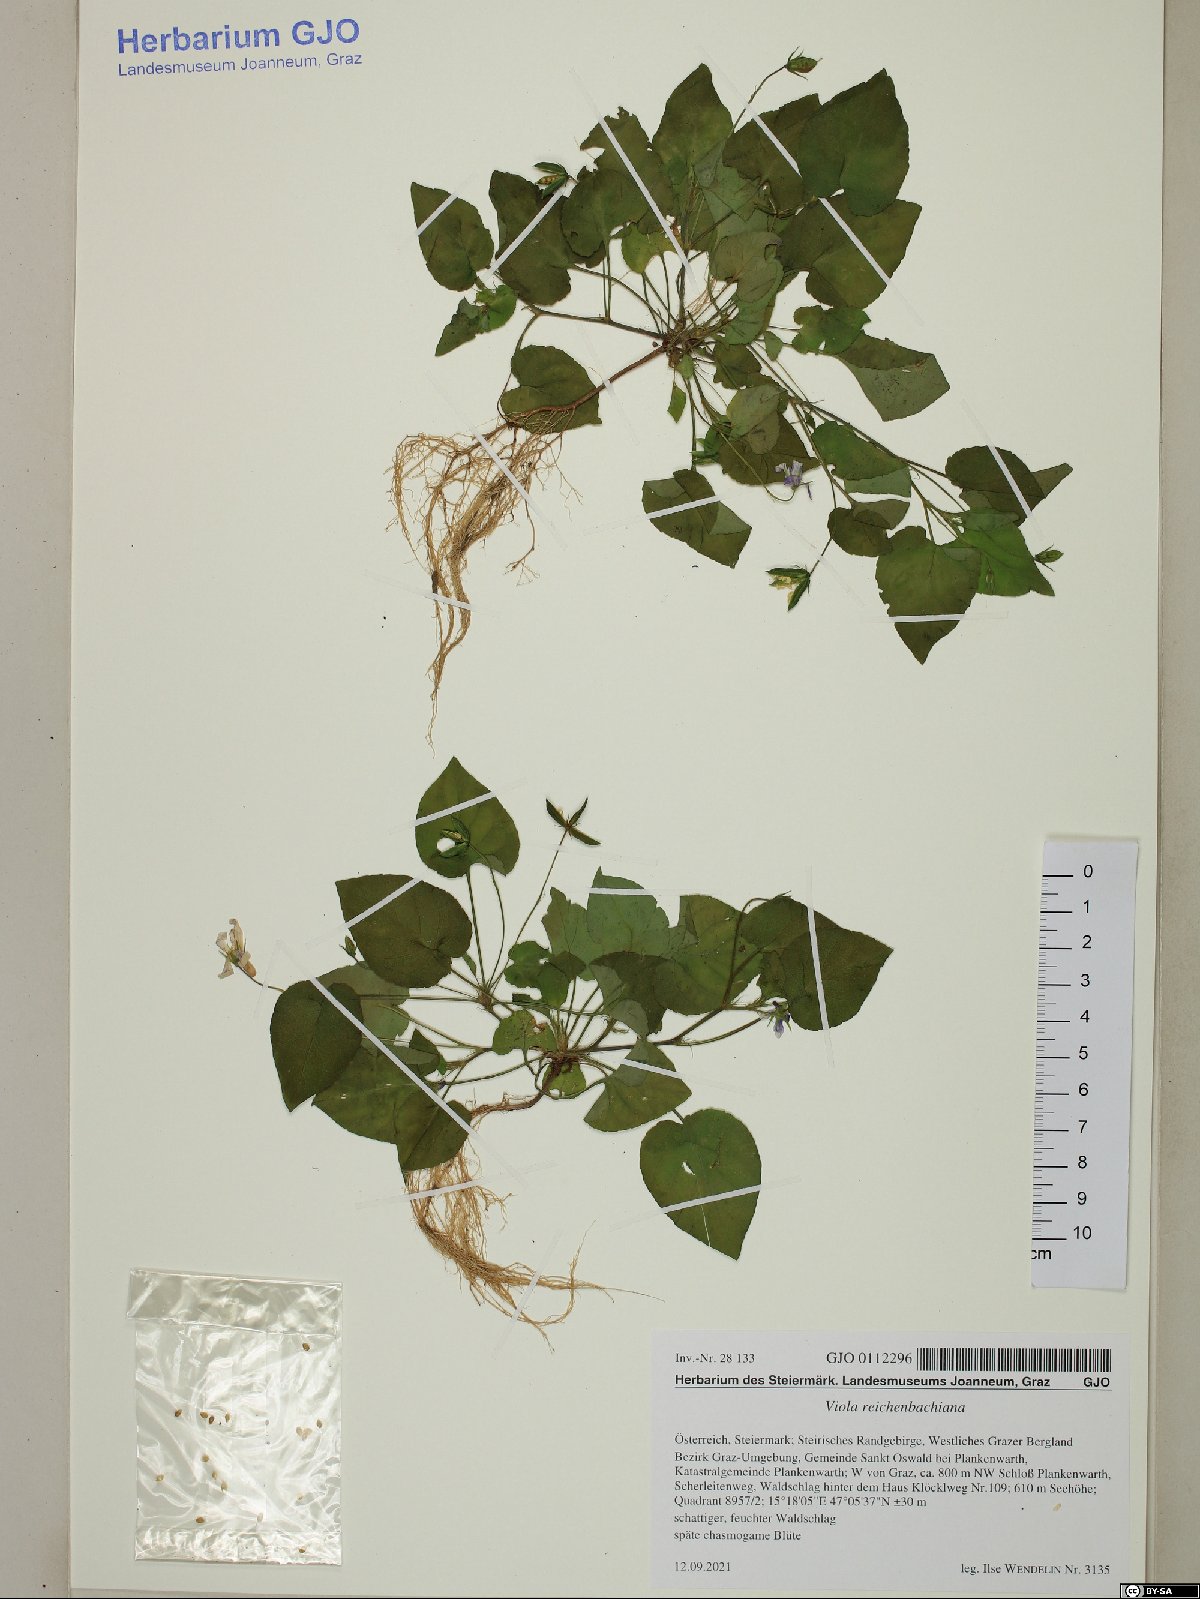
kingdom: Plantae
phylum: Tracheophyta
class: Magnoliopsida
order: Malpighiales
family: Violaceae
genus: Viola
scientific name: Viola reichenbachiana
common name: Early dog-violet
